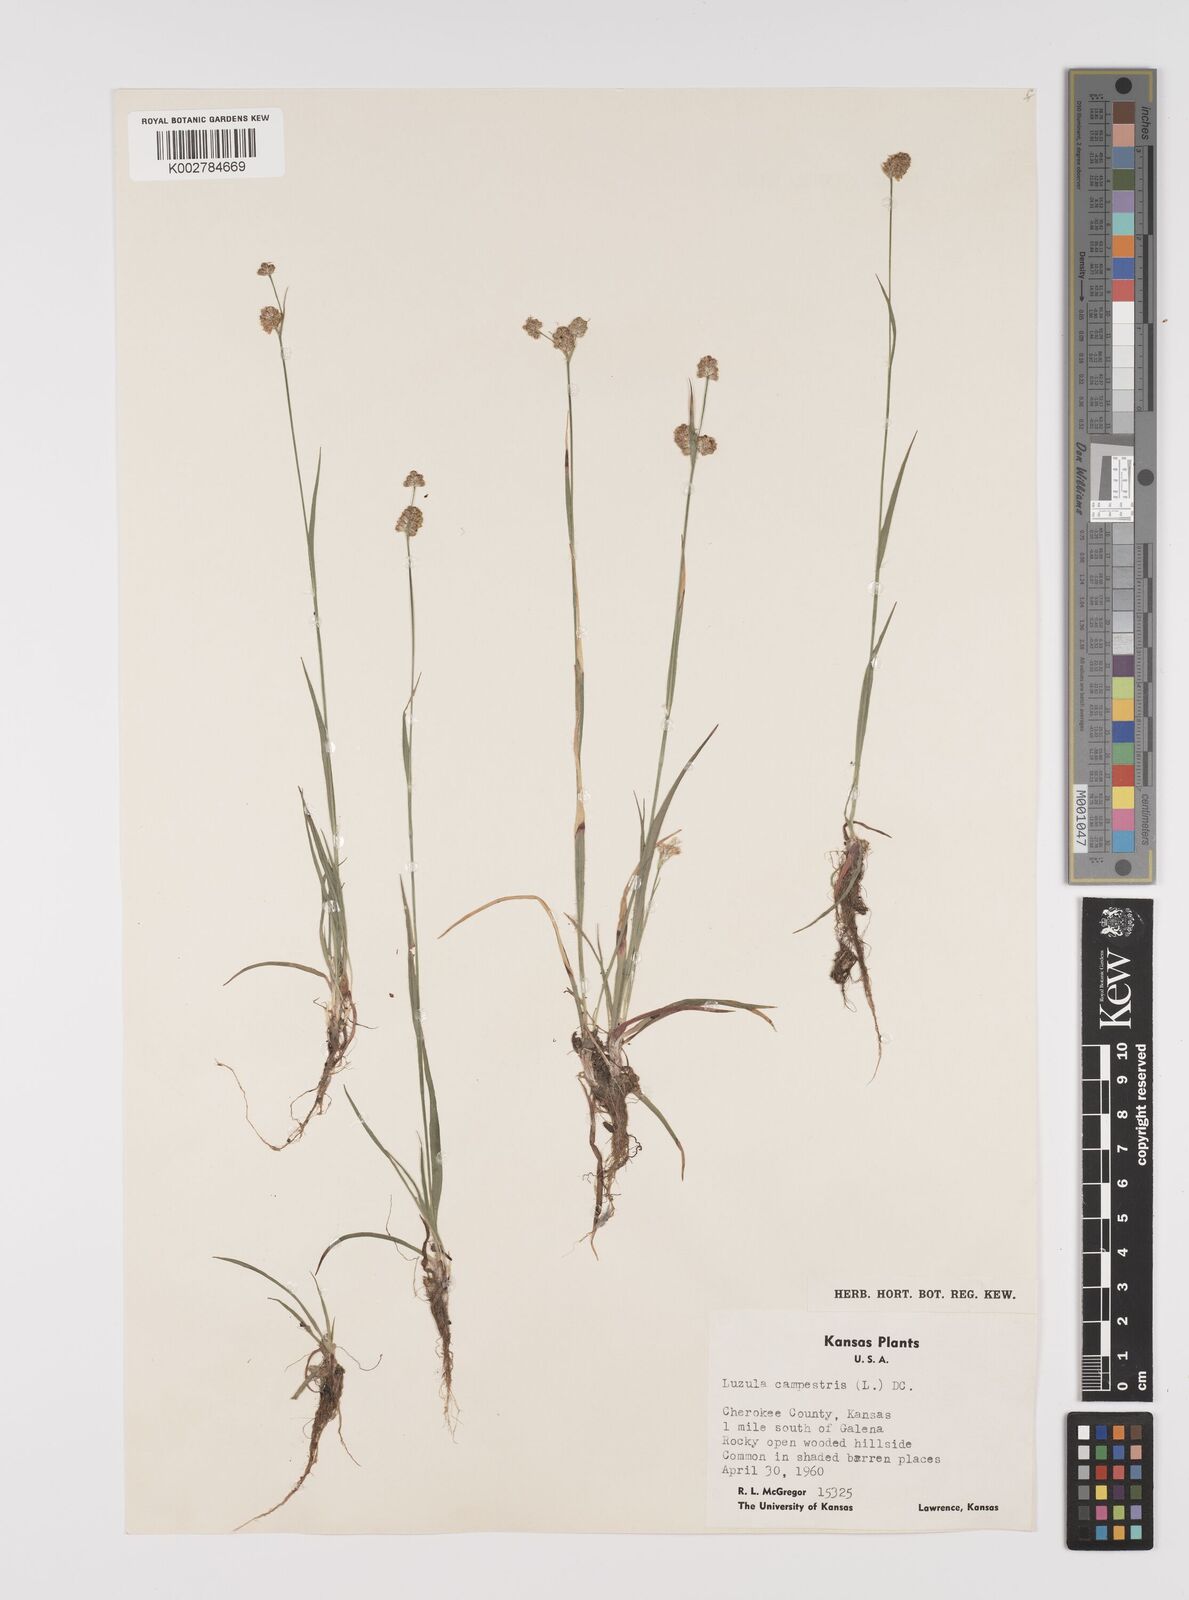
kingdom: Plantae
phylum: Tracheophyta
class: Liliopsida
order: Poales
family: Juncaceae
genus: Luzula
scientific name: Luzula campestris
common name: Field wood-rush
